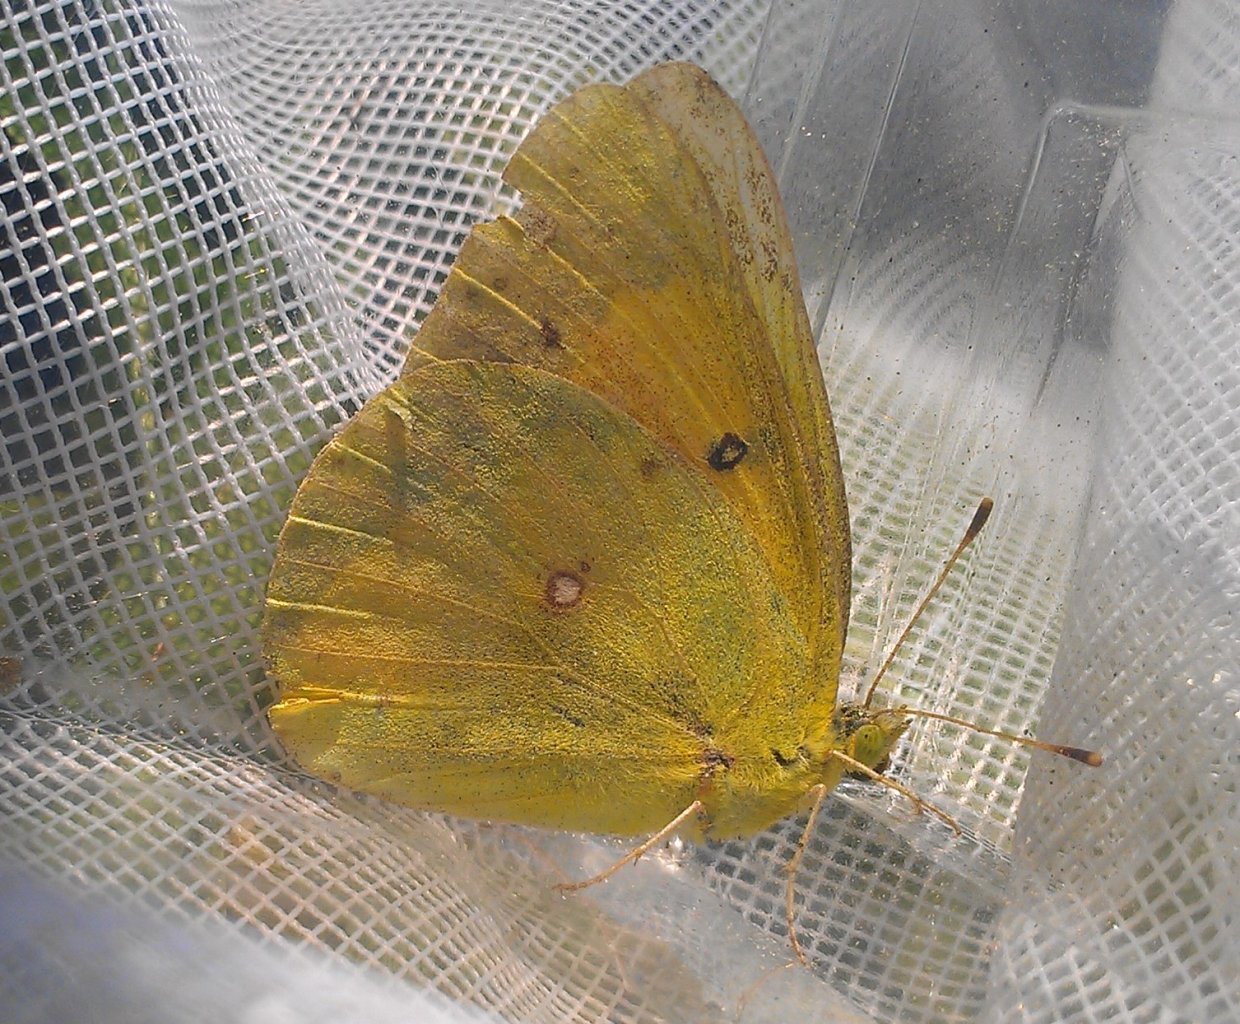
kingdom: Animalia
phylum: Arthropoda
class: Insecta
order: Lepidoptera
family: Pieridae
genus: Colias
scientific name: Colias eurytheme
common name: Orange Sulphur
